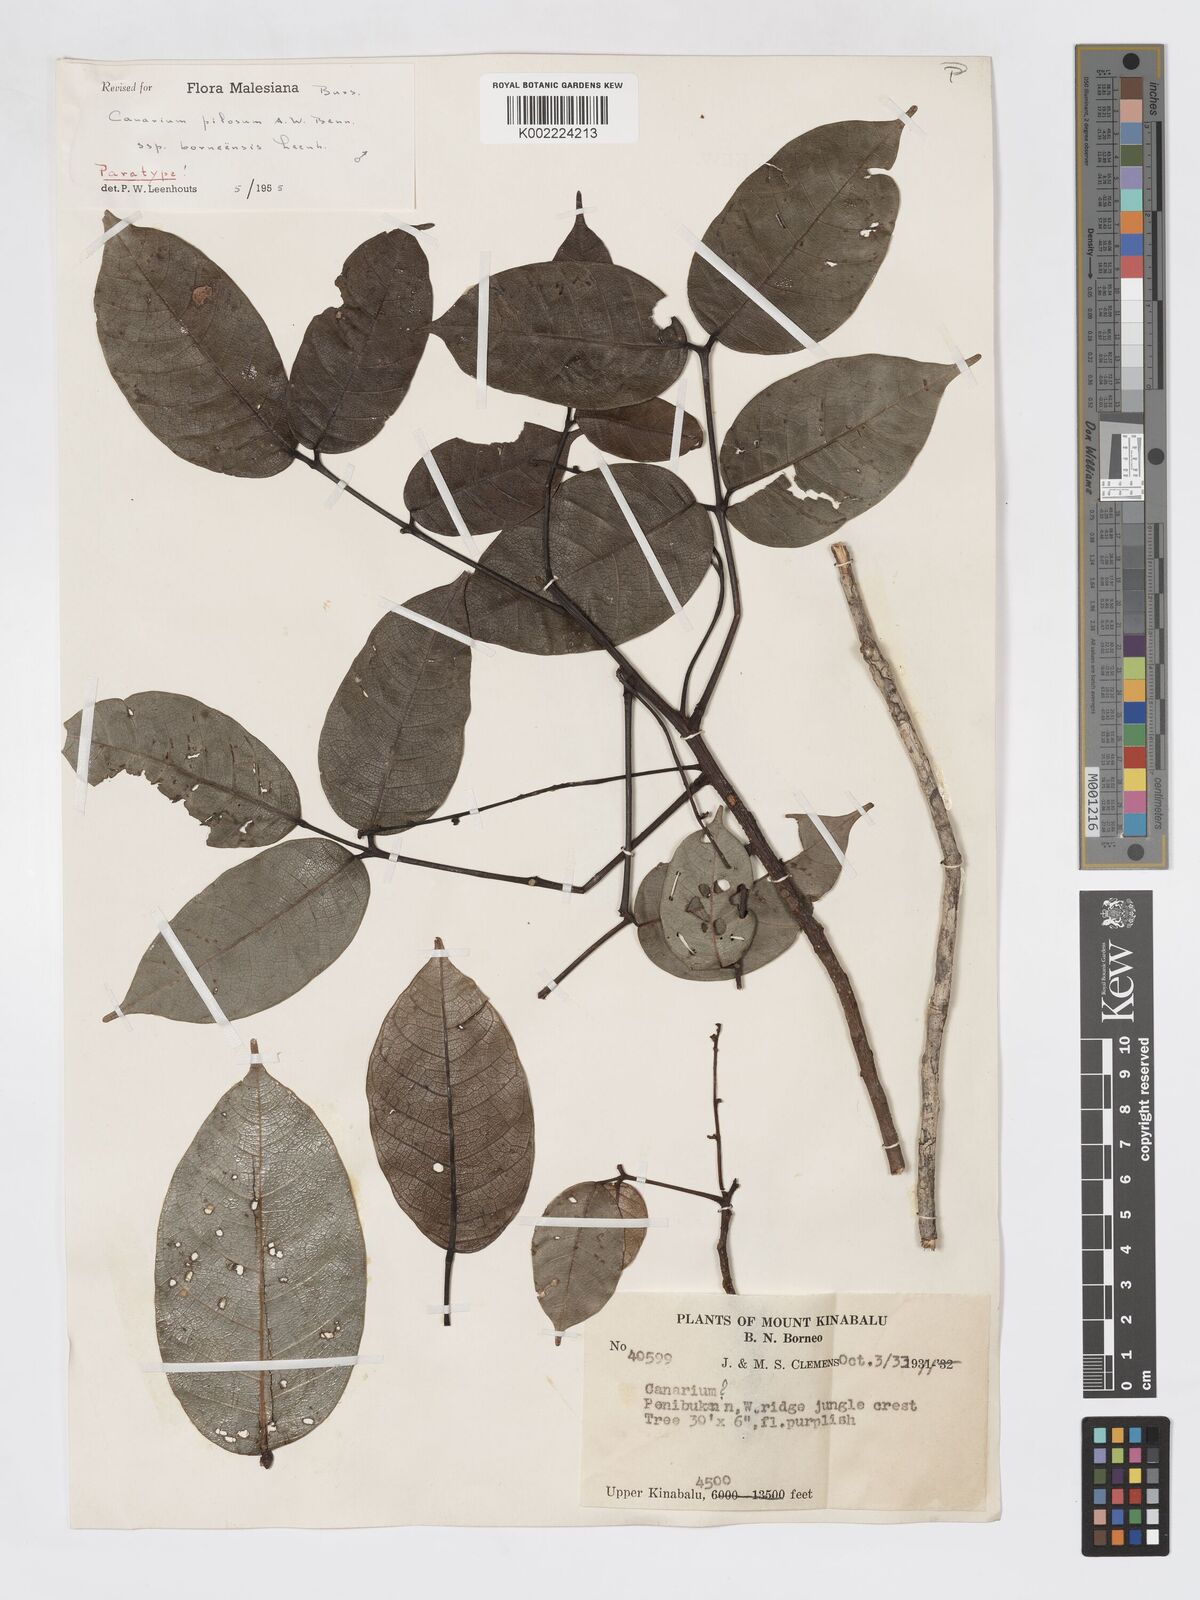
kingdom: Plantae
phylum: Tracheophyta
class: Magnoliopsida
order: Sapindales
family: Burseraceae
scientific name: Burseraceae
